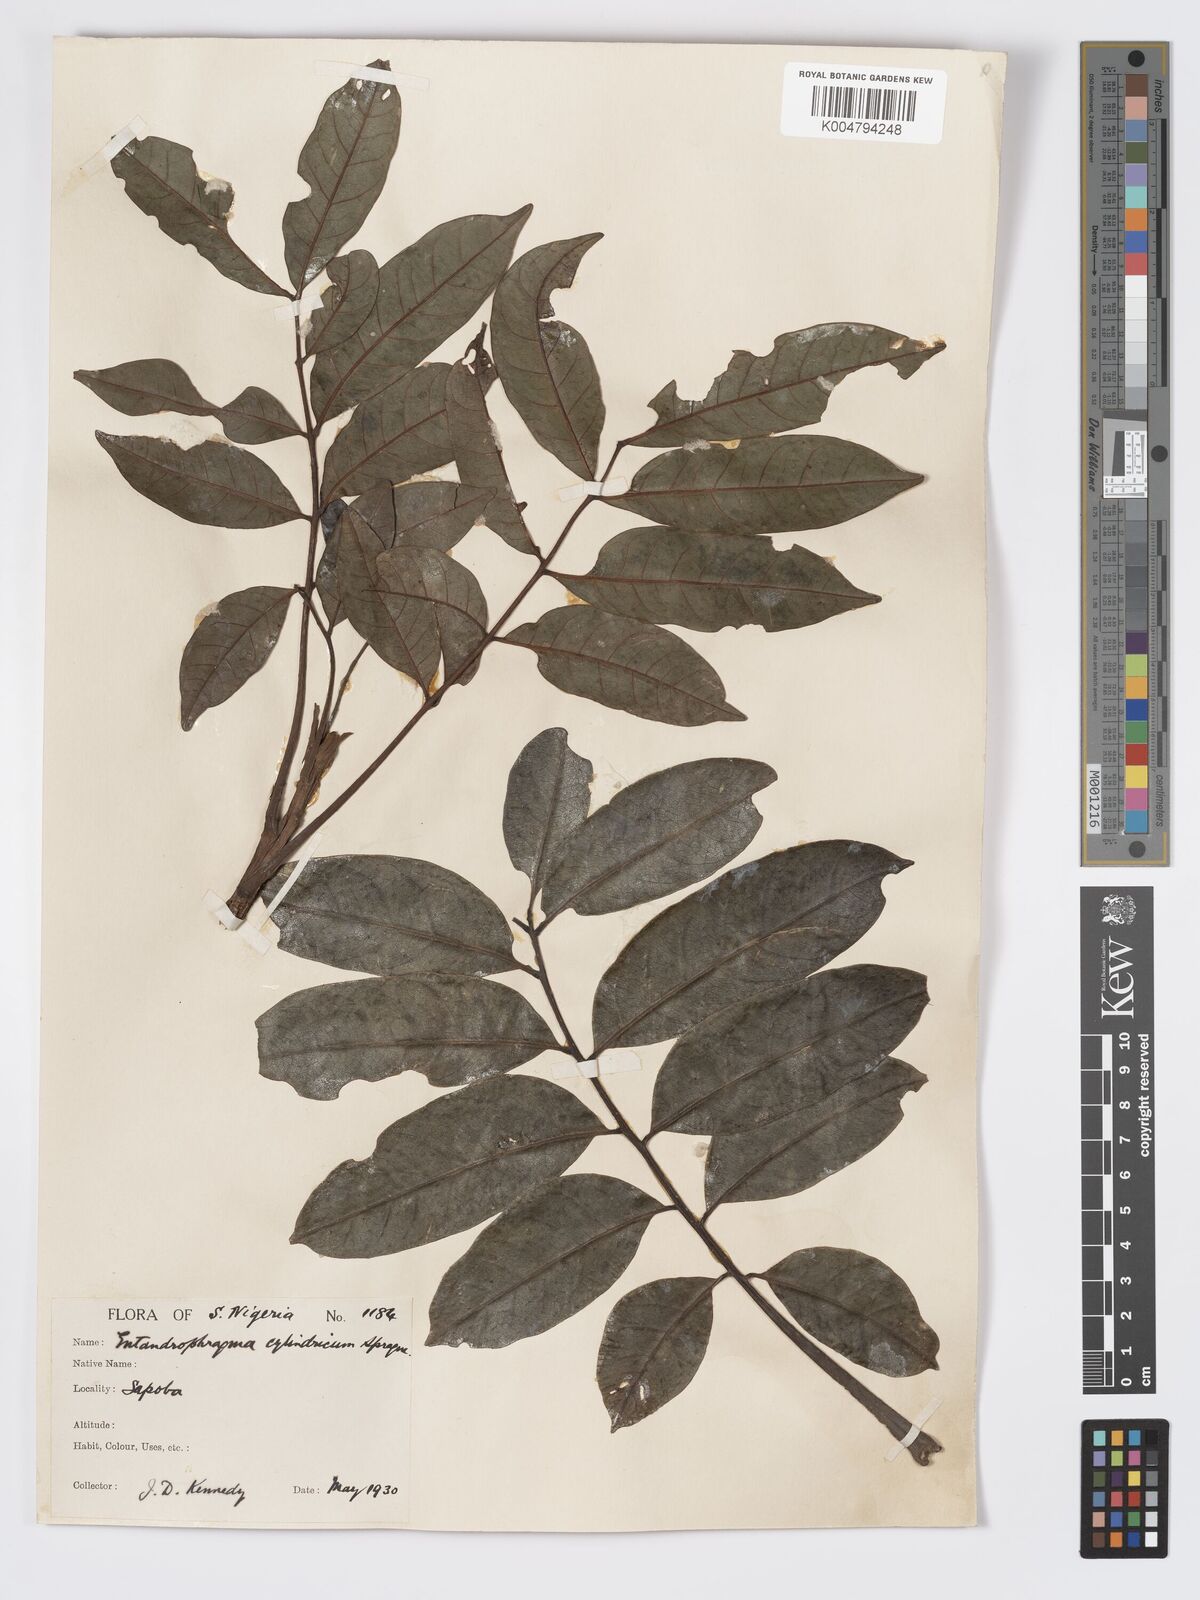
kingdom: Plantae
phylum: Tracheophyta
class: Magnoliopsida
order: Sapindales
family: Meliaceae
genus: Entandrophragma
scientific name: Entandrophragma cylindricum
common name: Sapele
